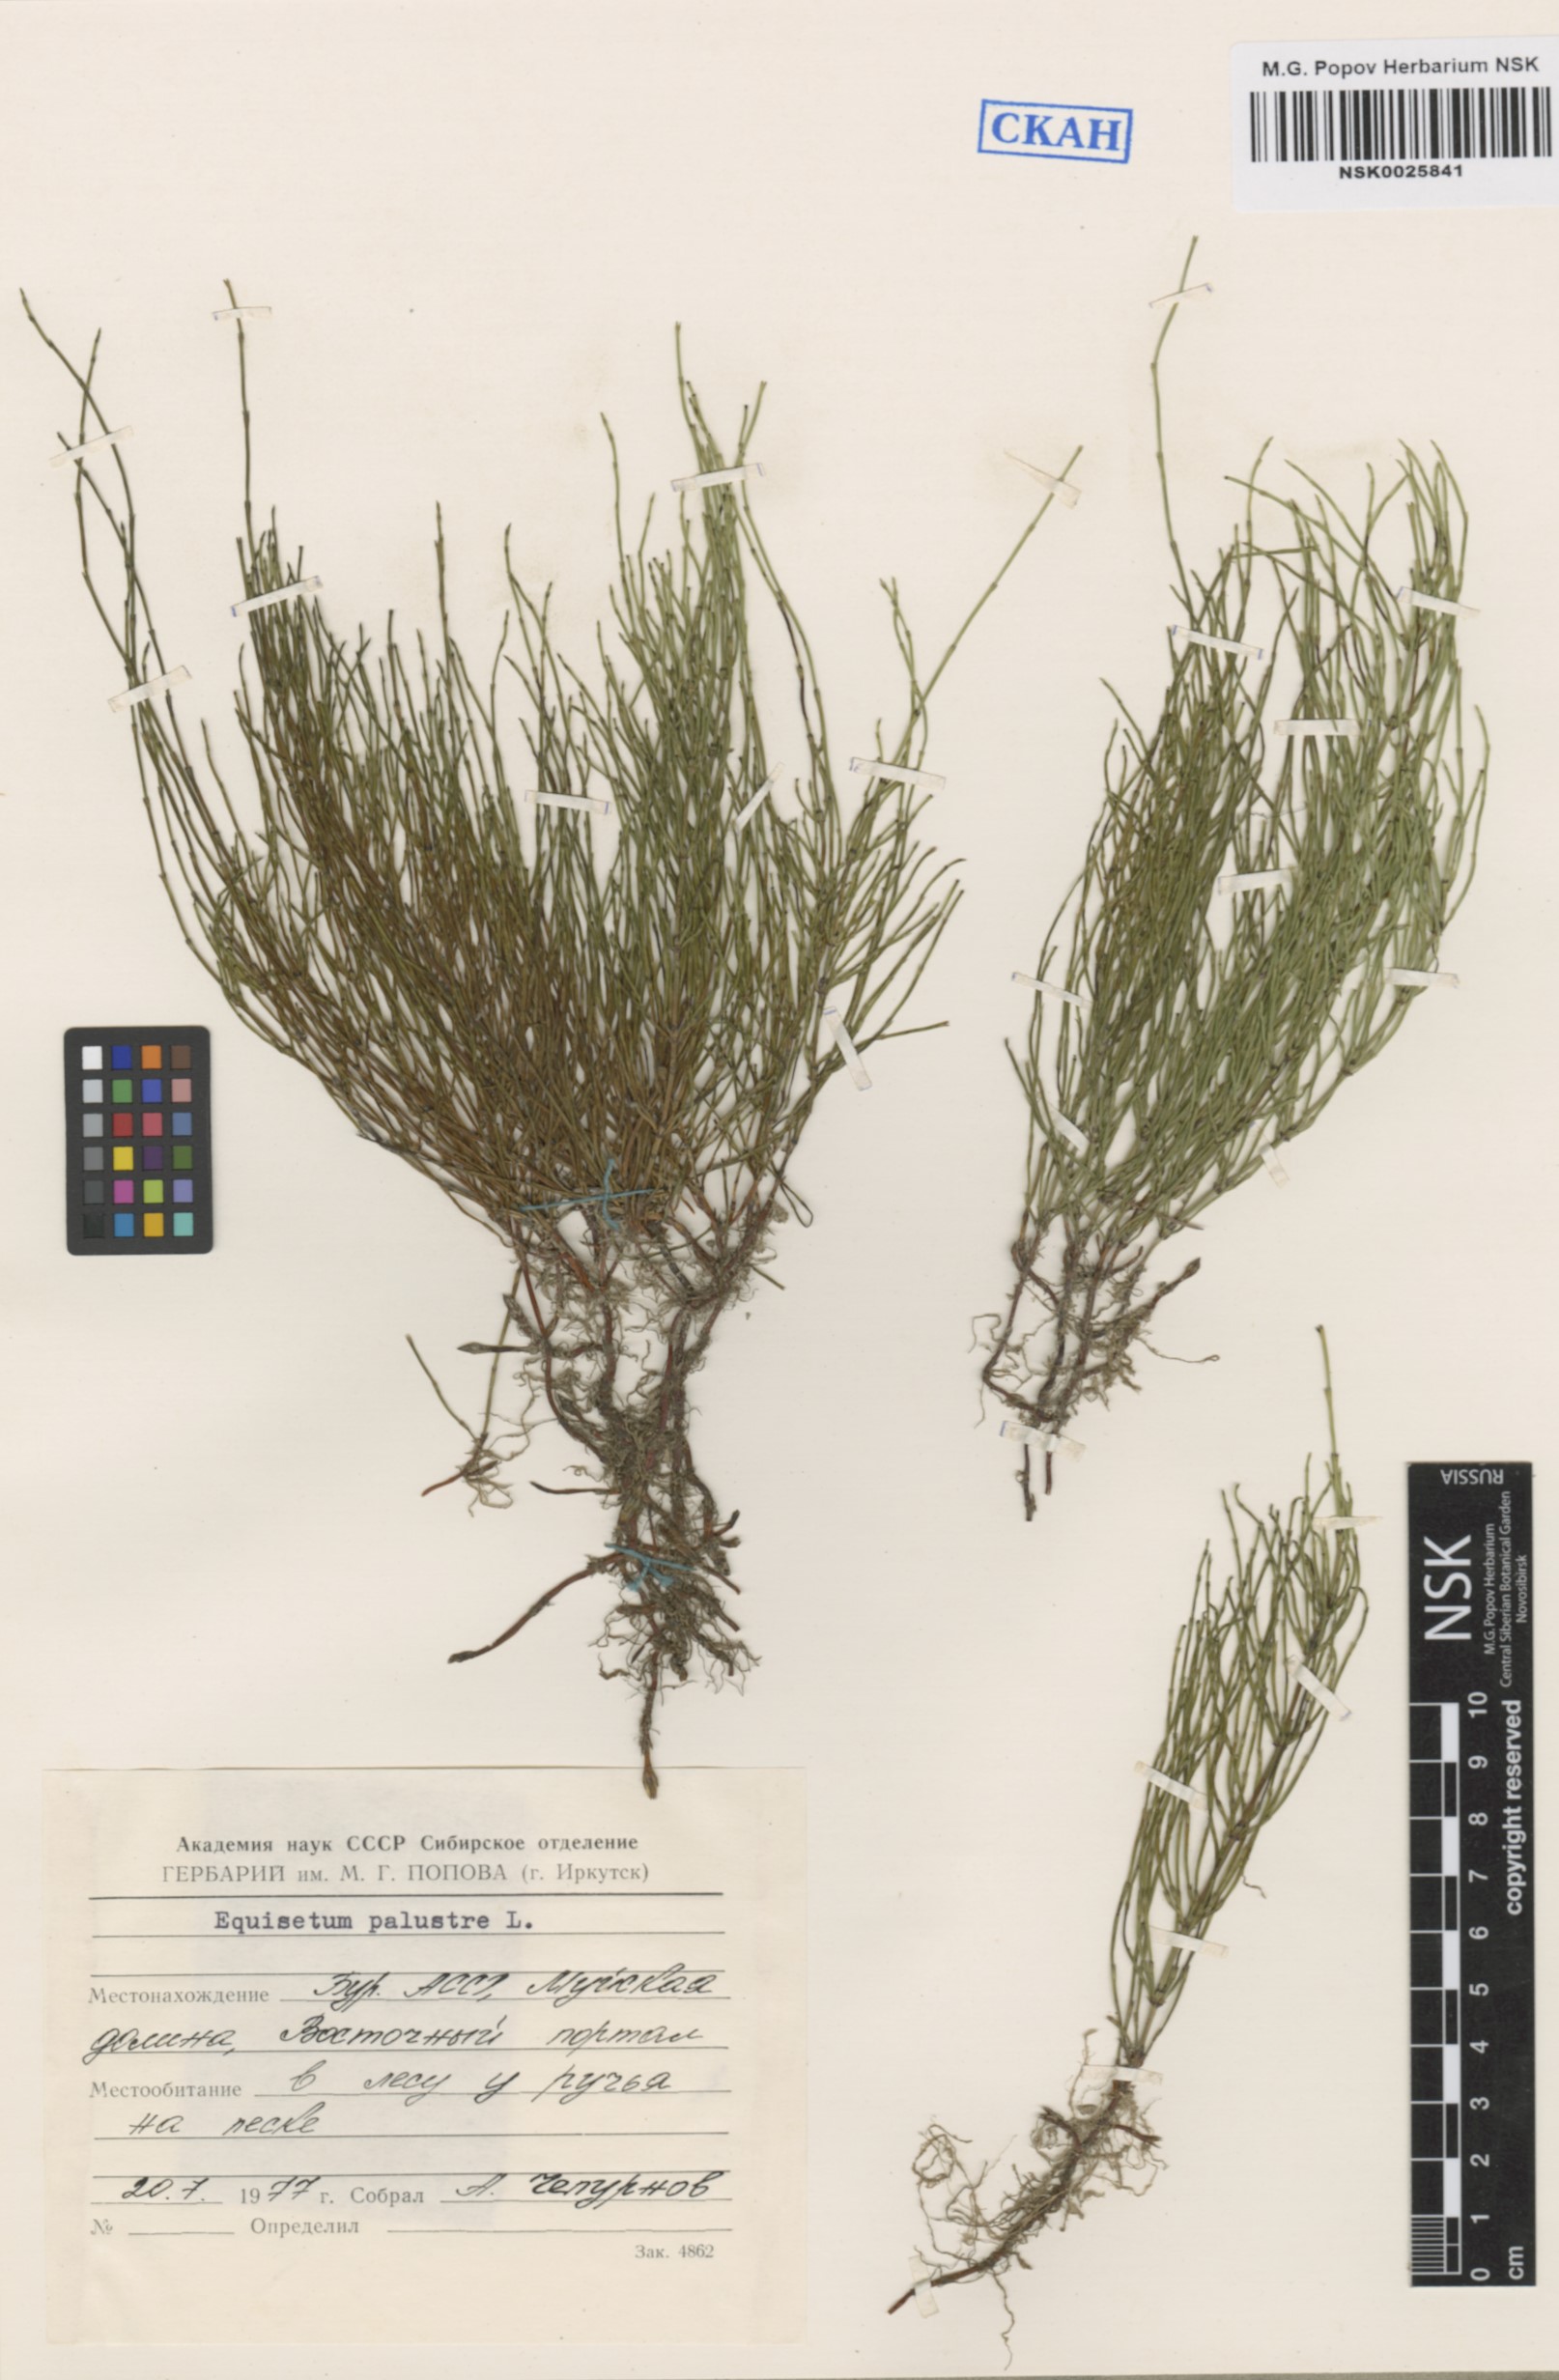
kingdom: Plantae
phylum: Tracheophyta
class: Polypodiopsida
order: Equisetales
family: Equisetaceae
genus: Equisetum
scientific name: Equisetum palustre
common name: Marsh horsetail
